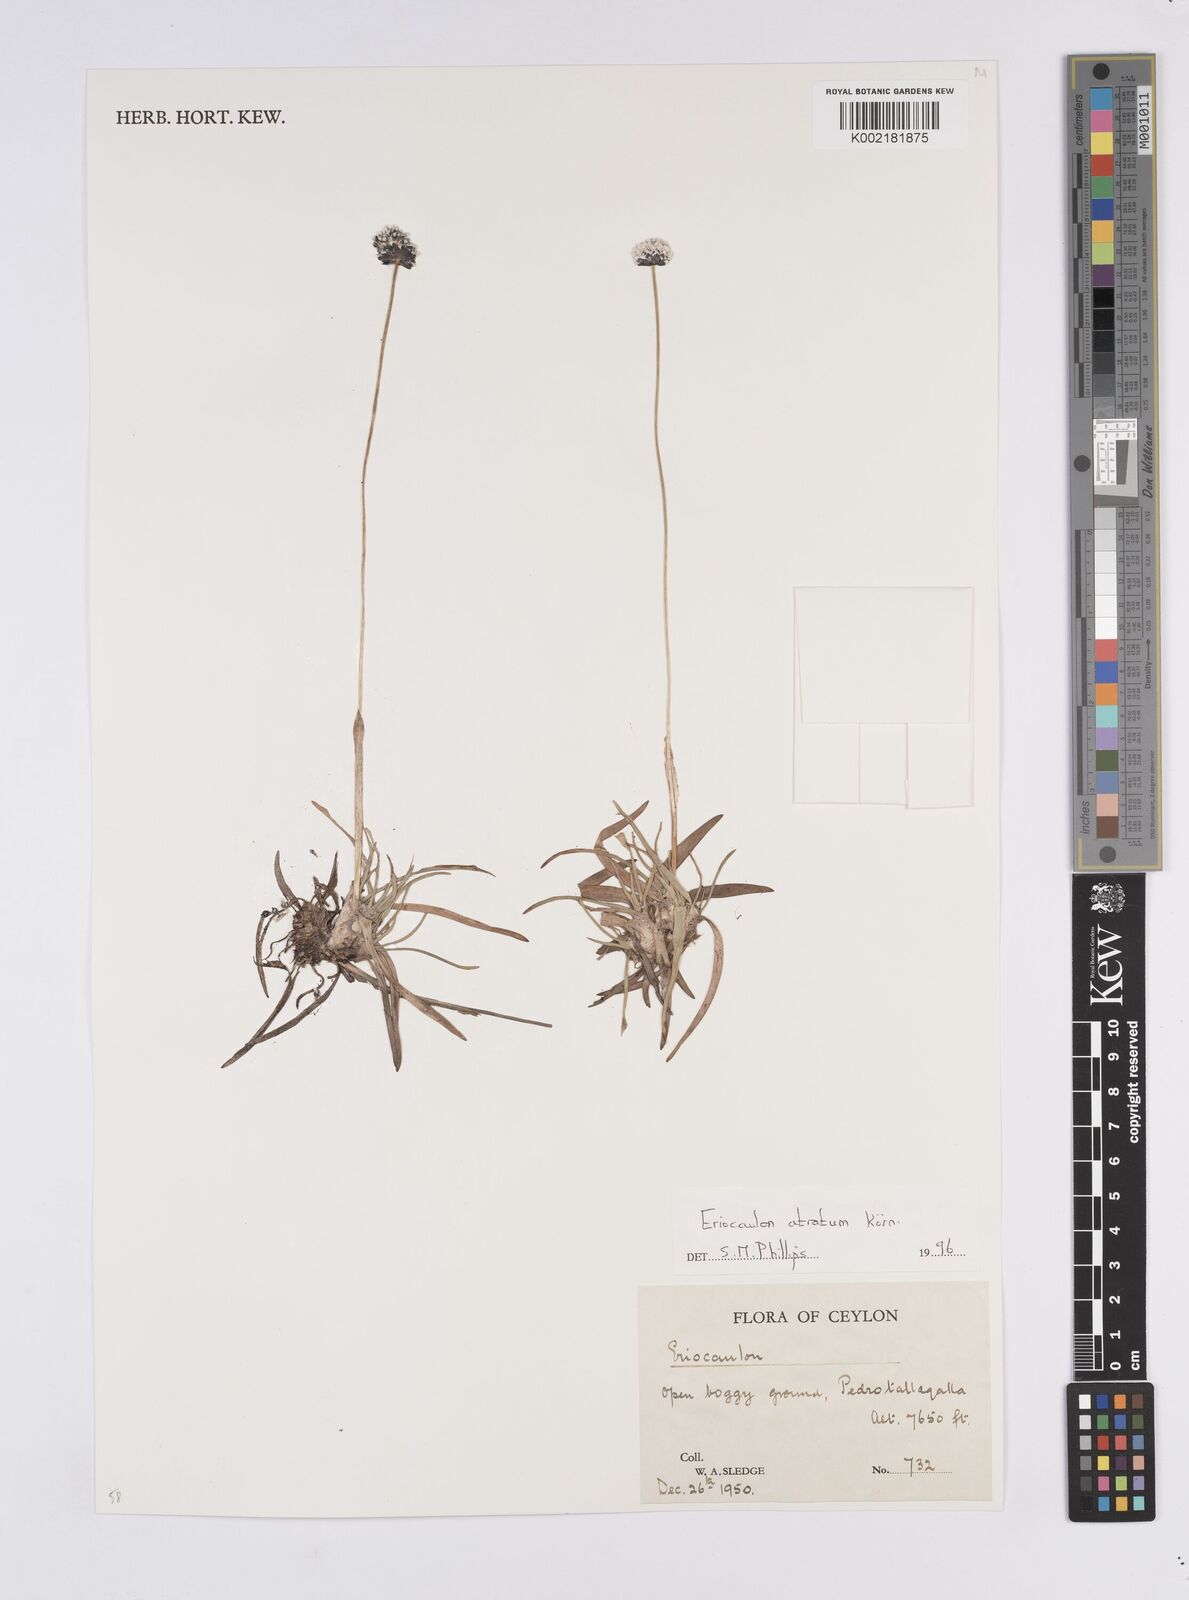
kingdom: Plantae
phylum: Tracheophyta
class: Liliopsida
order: Poales
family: Eriocaulaceae
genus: Eriocaulon
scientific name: Eriocaulon atratum
